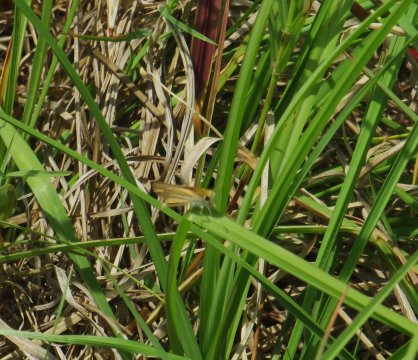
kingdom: Animalia
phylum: Arthropoda
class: Insecta
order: Lepidoptera
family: Hesperiidae
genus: Copaeodes
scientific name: Copaeodes minima
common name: Southern Skipperling
